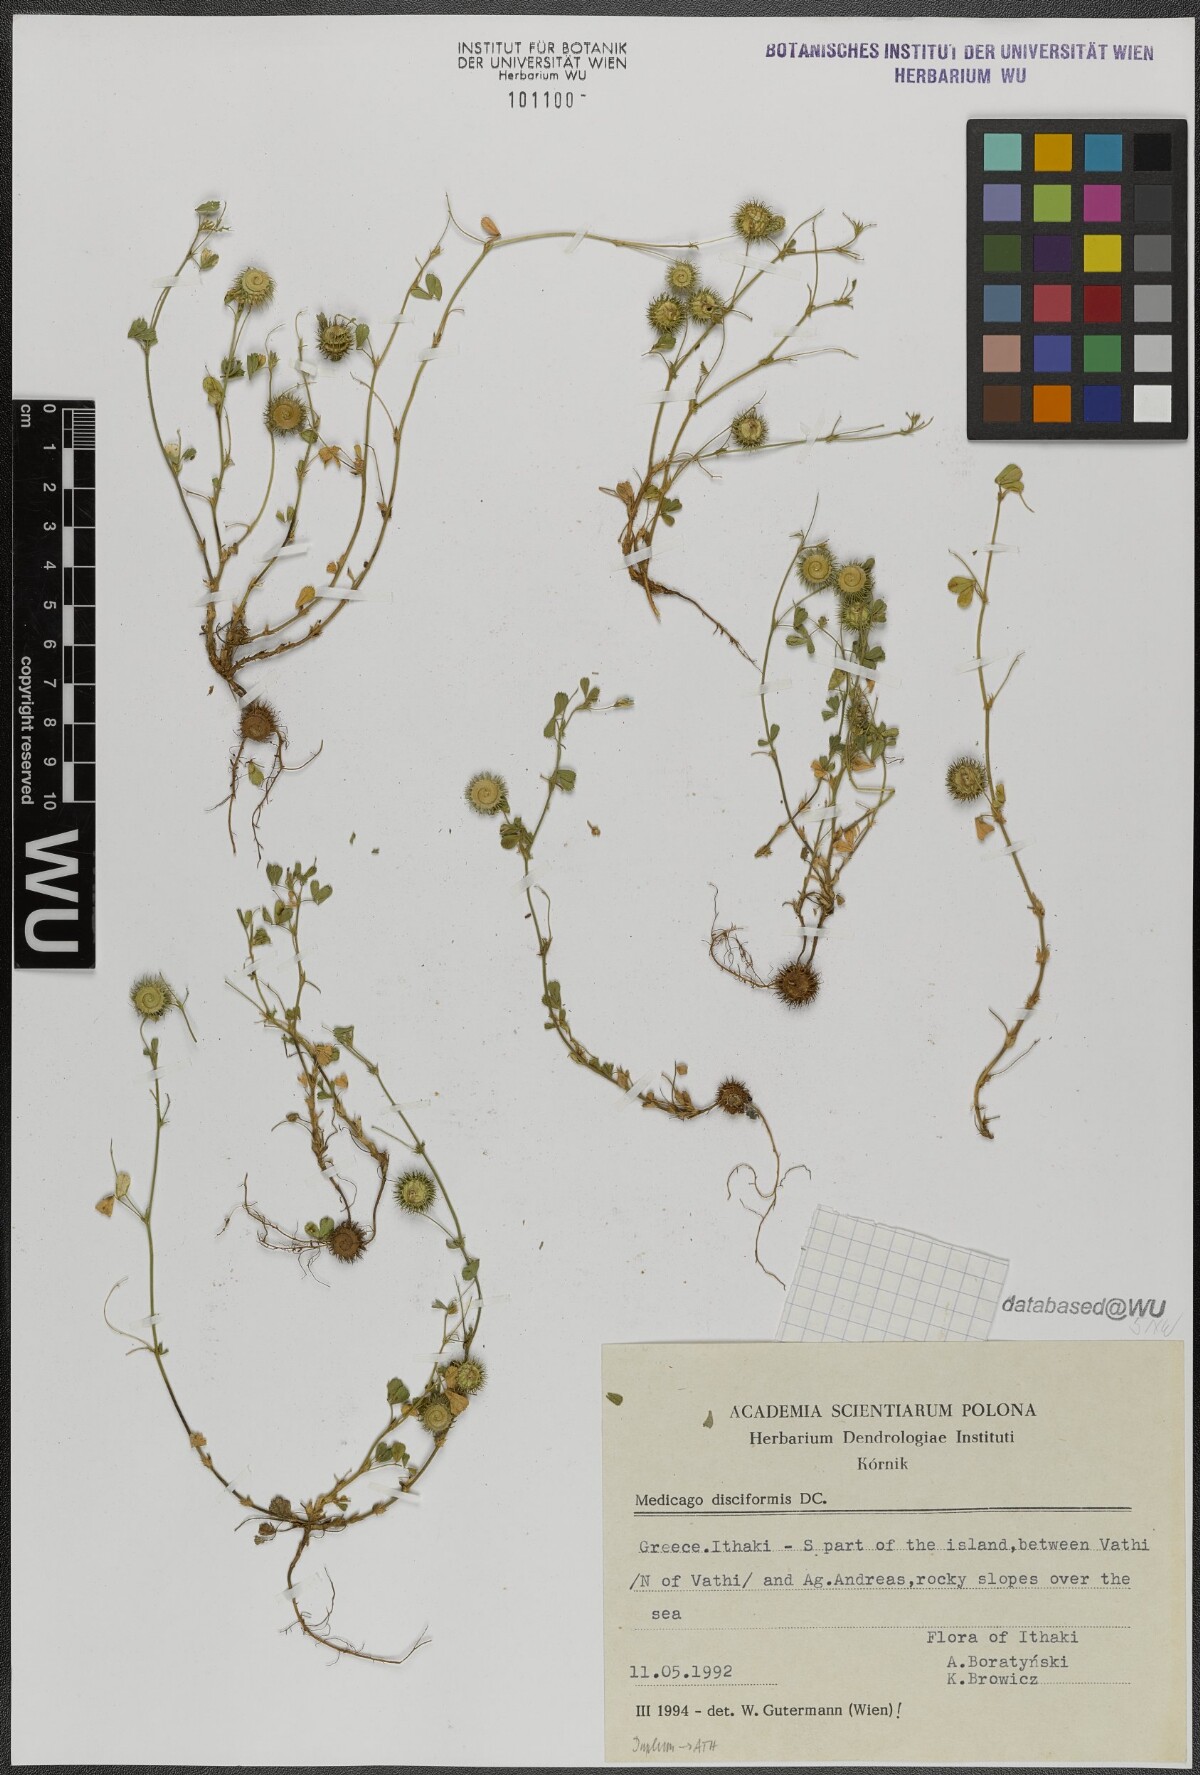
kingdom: Plantae
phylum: Tracheophyta
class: Magnoliopsida
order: Fabales
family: Fabaceae
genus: Medicago
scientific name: Medicago disciformis
